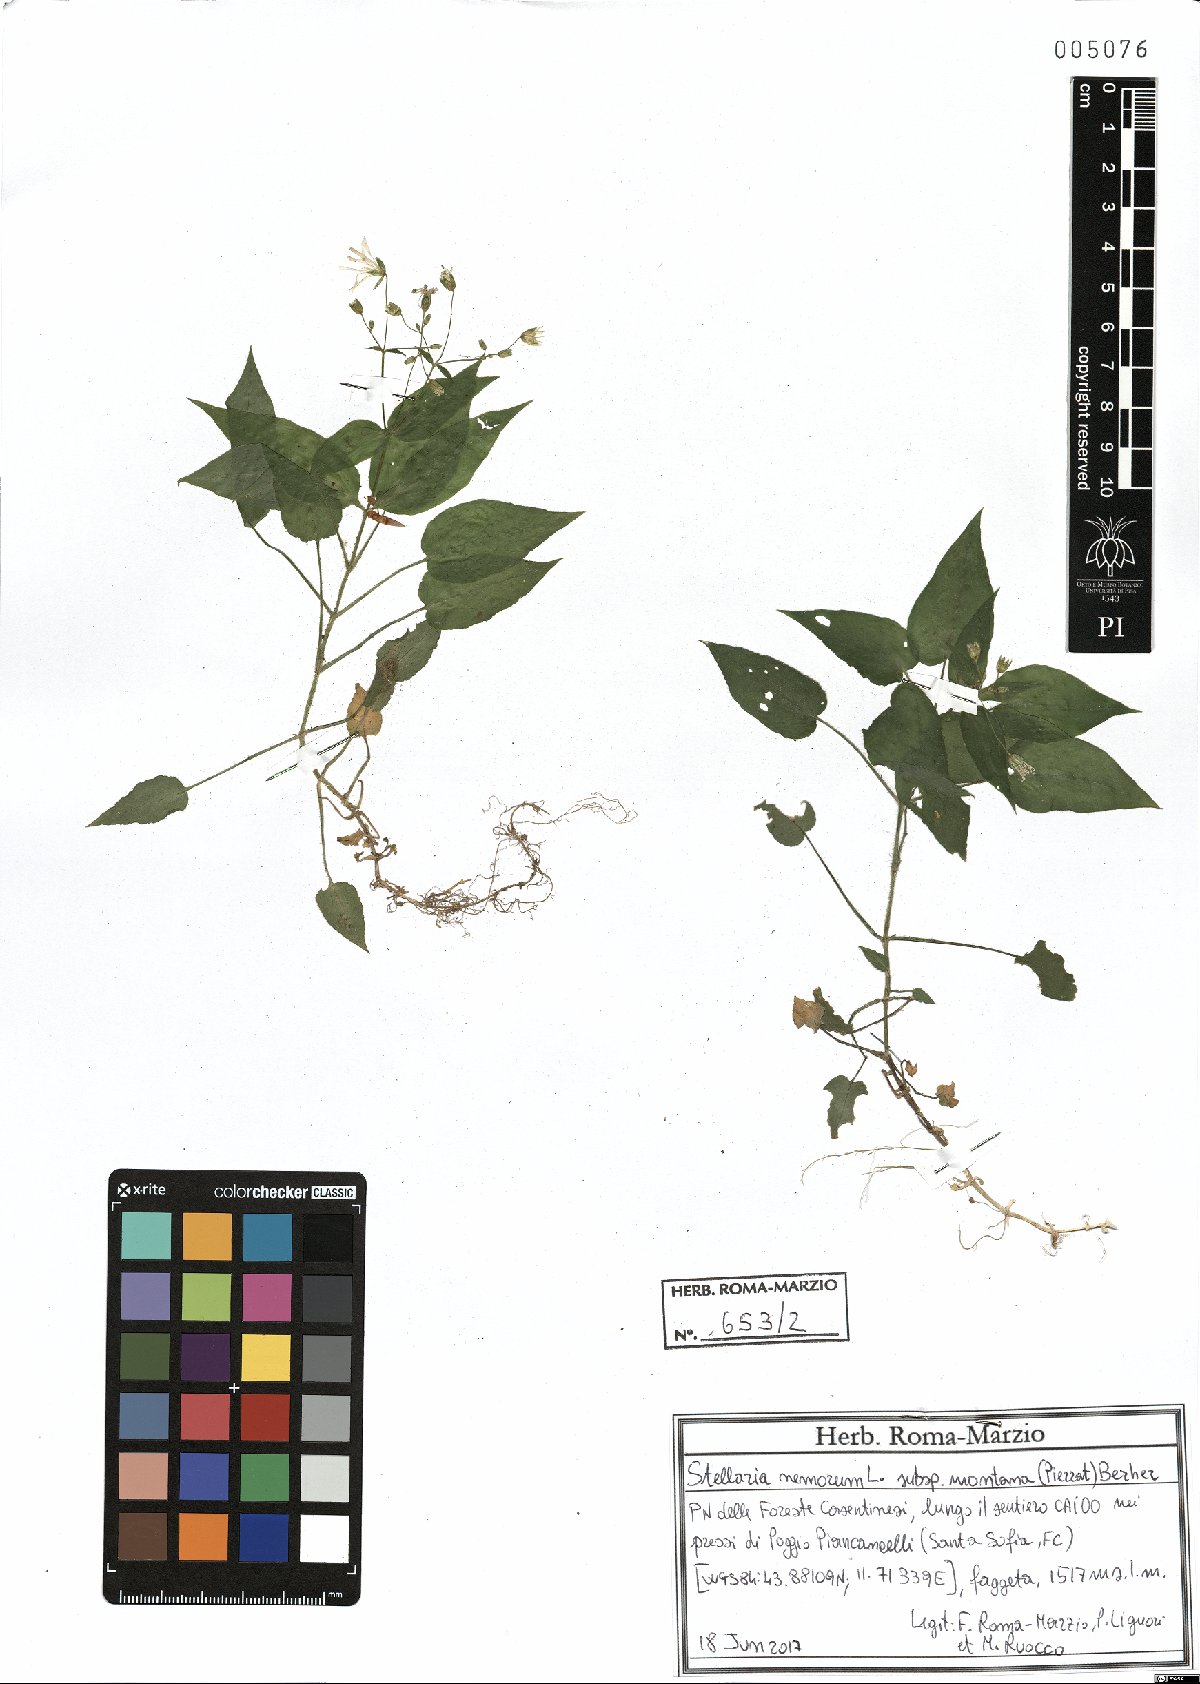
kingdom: Plantae
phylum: Tracheophyta
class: Magnoliopsida
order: Caryophyllales
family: Caryophyllaceae
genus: Stellaria
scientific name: Stellaria glochidisperma
